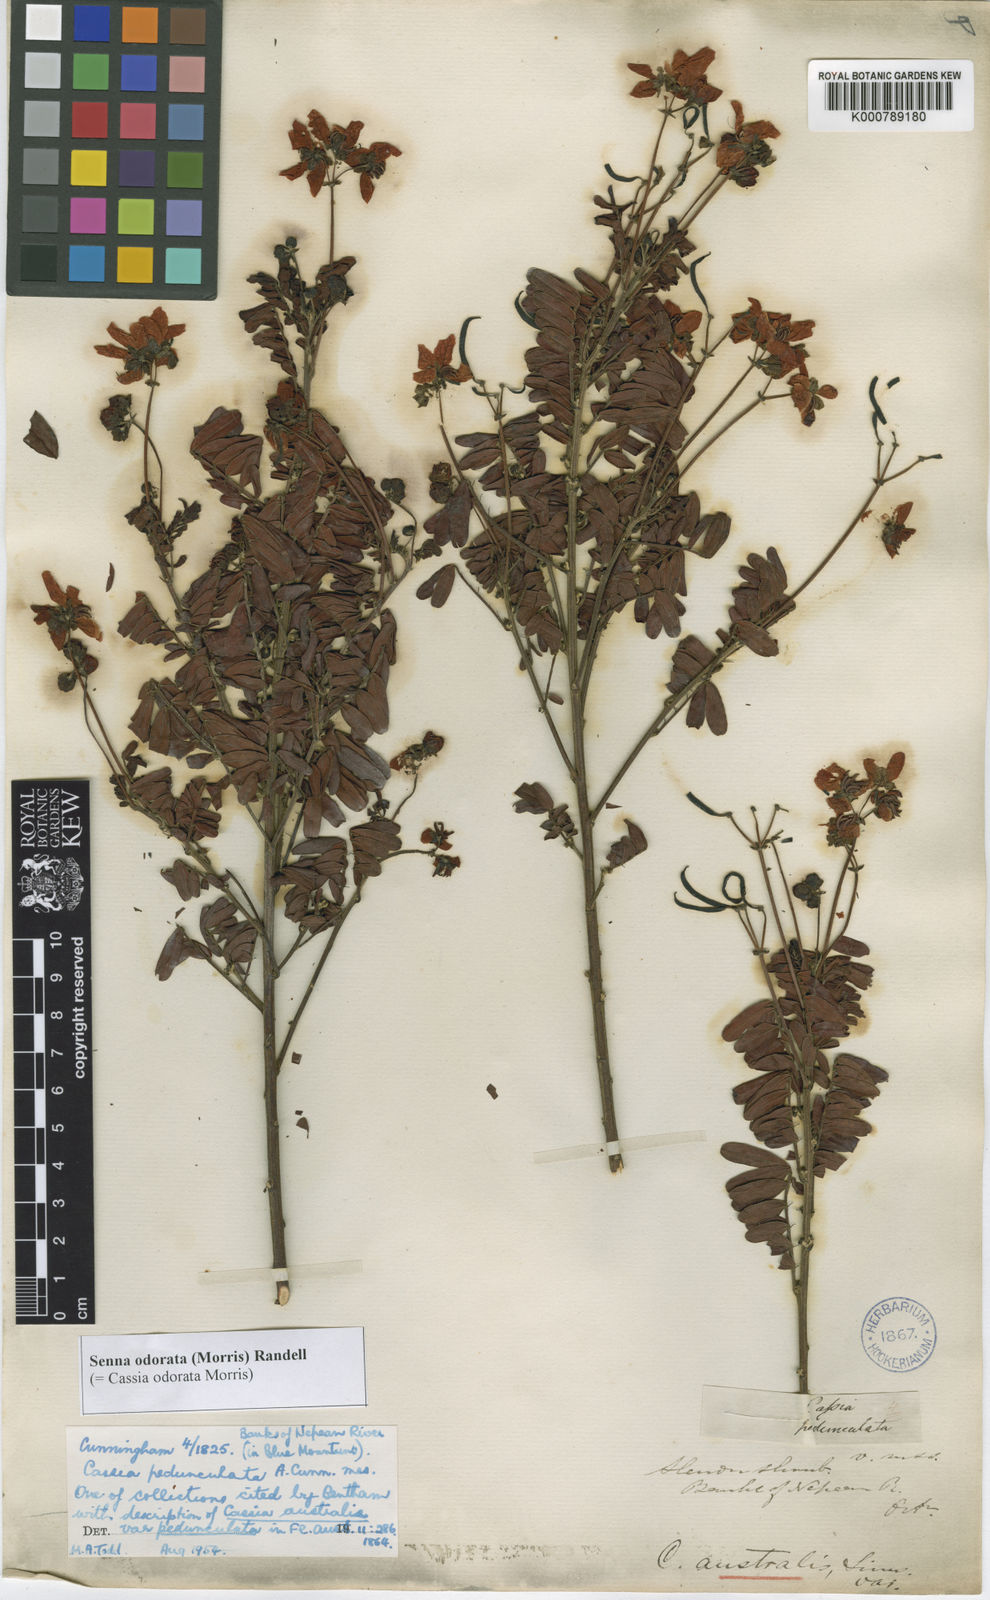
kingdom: Plantae
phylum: Tracheophyta
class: Magnoliopsida
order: Fabales
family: Fabaceae
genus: Senna
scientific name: Senna barronfieldii
